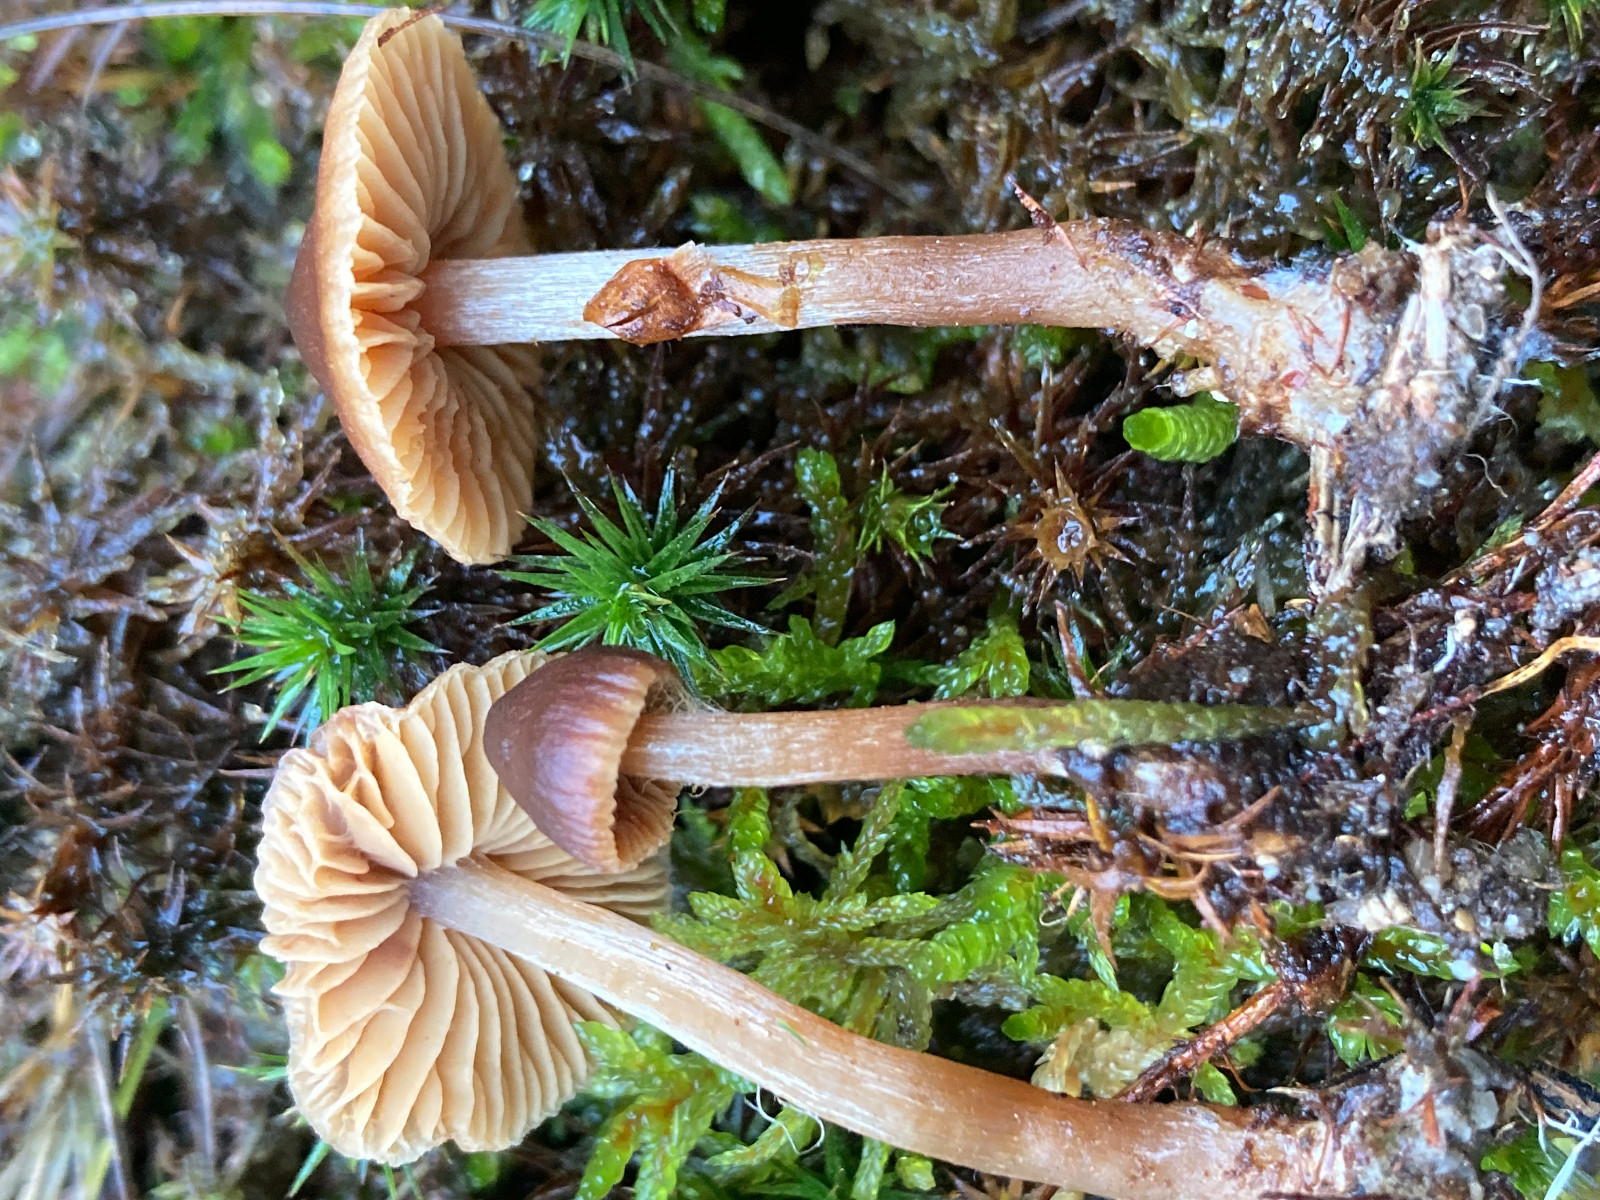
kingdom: Fungi
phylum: Basidiomycota
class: Agaricomycetes
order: Agaricales
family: Cortinariaceae
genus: Cortinarius
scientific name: Cortinarius
